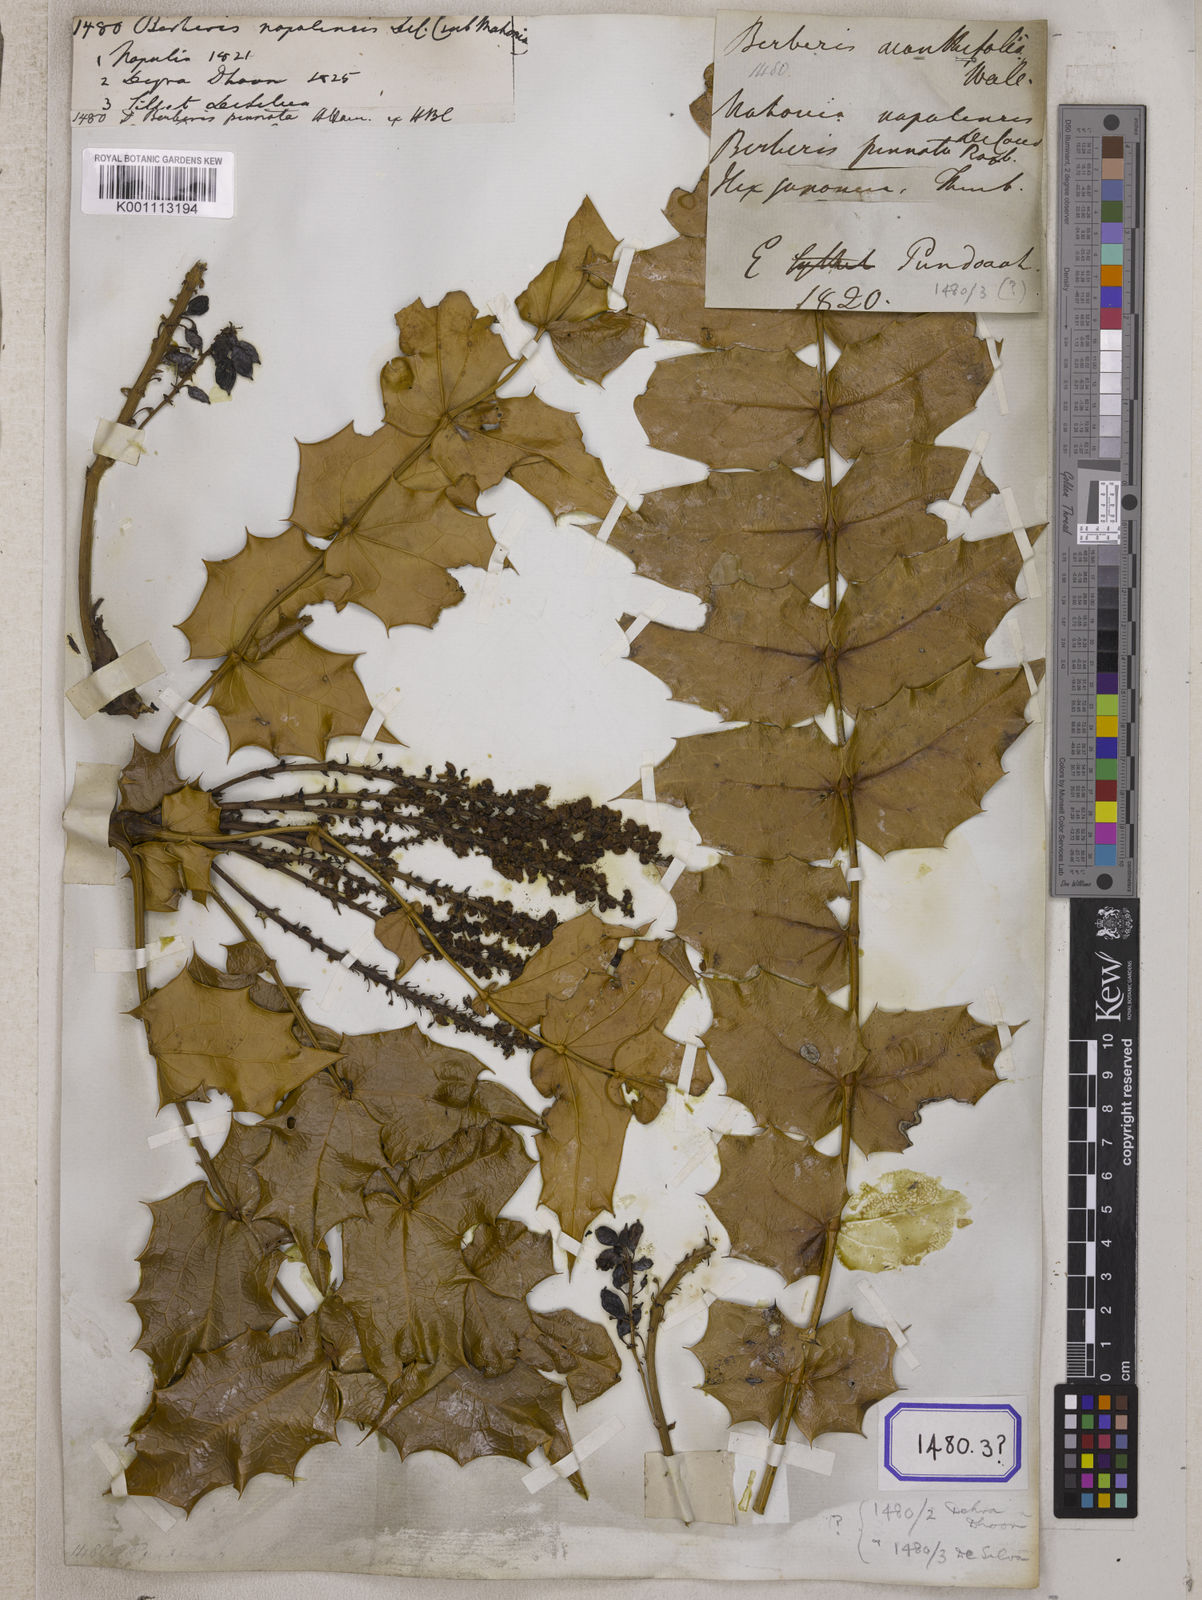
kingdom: Plantae
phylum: Tracheophyta
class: Magnoliopsida
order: Ranunculales
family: Berberidaceae
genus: Berberis
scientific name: Berberis
